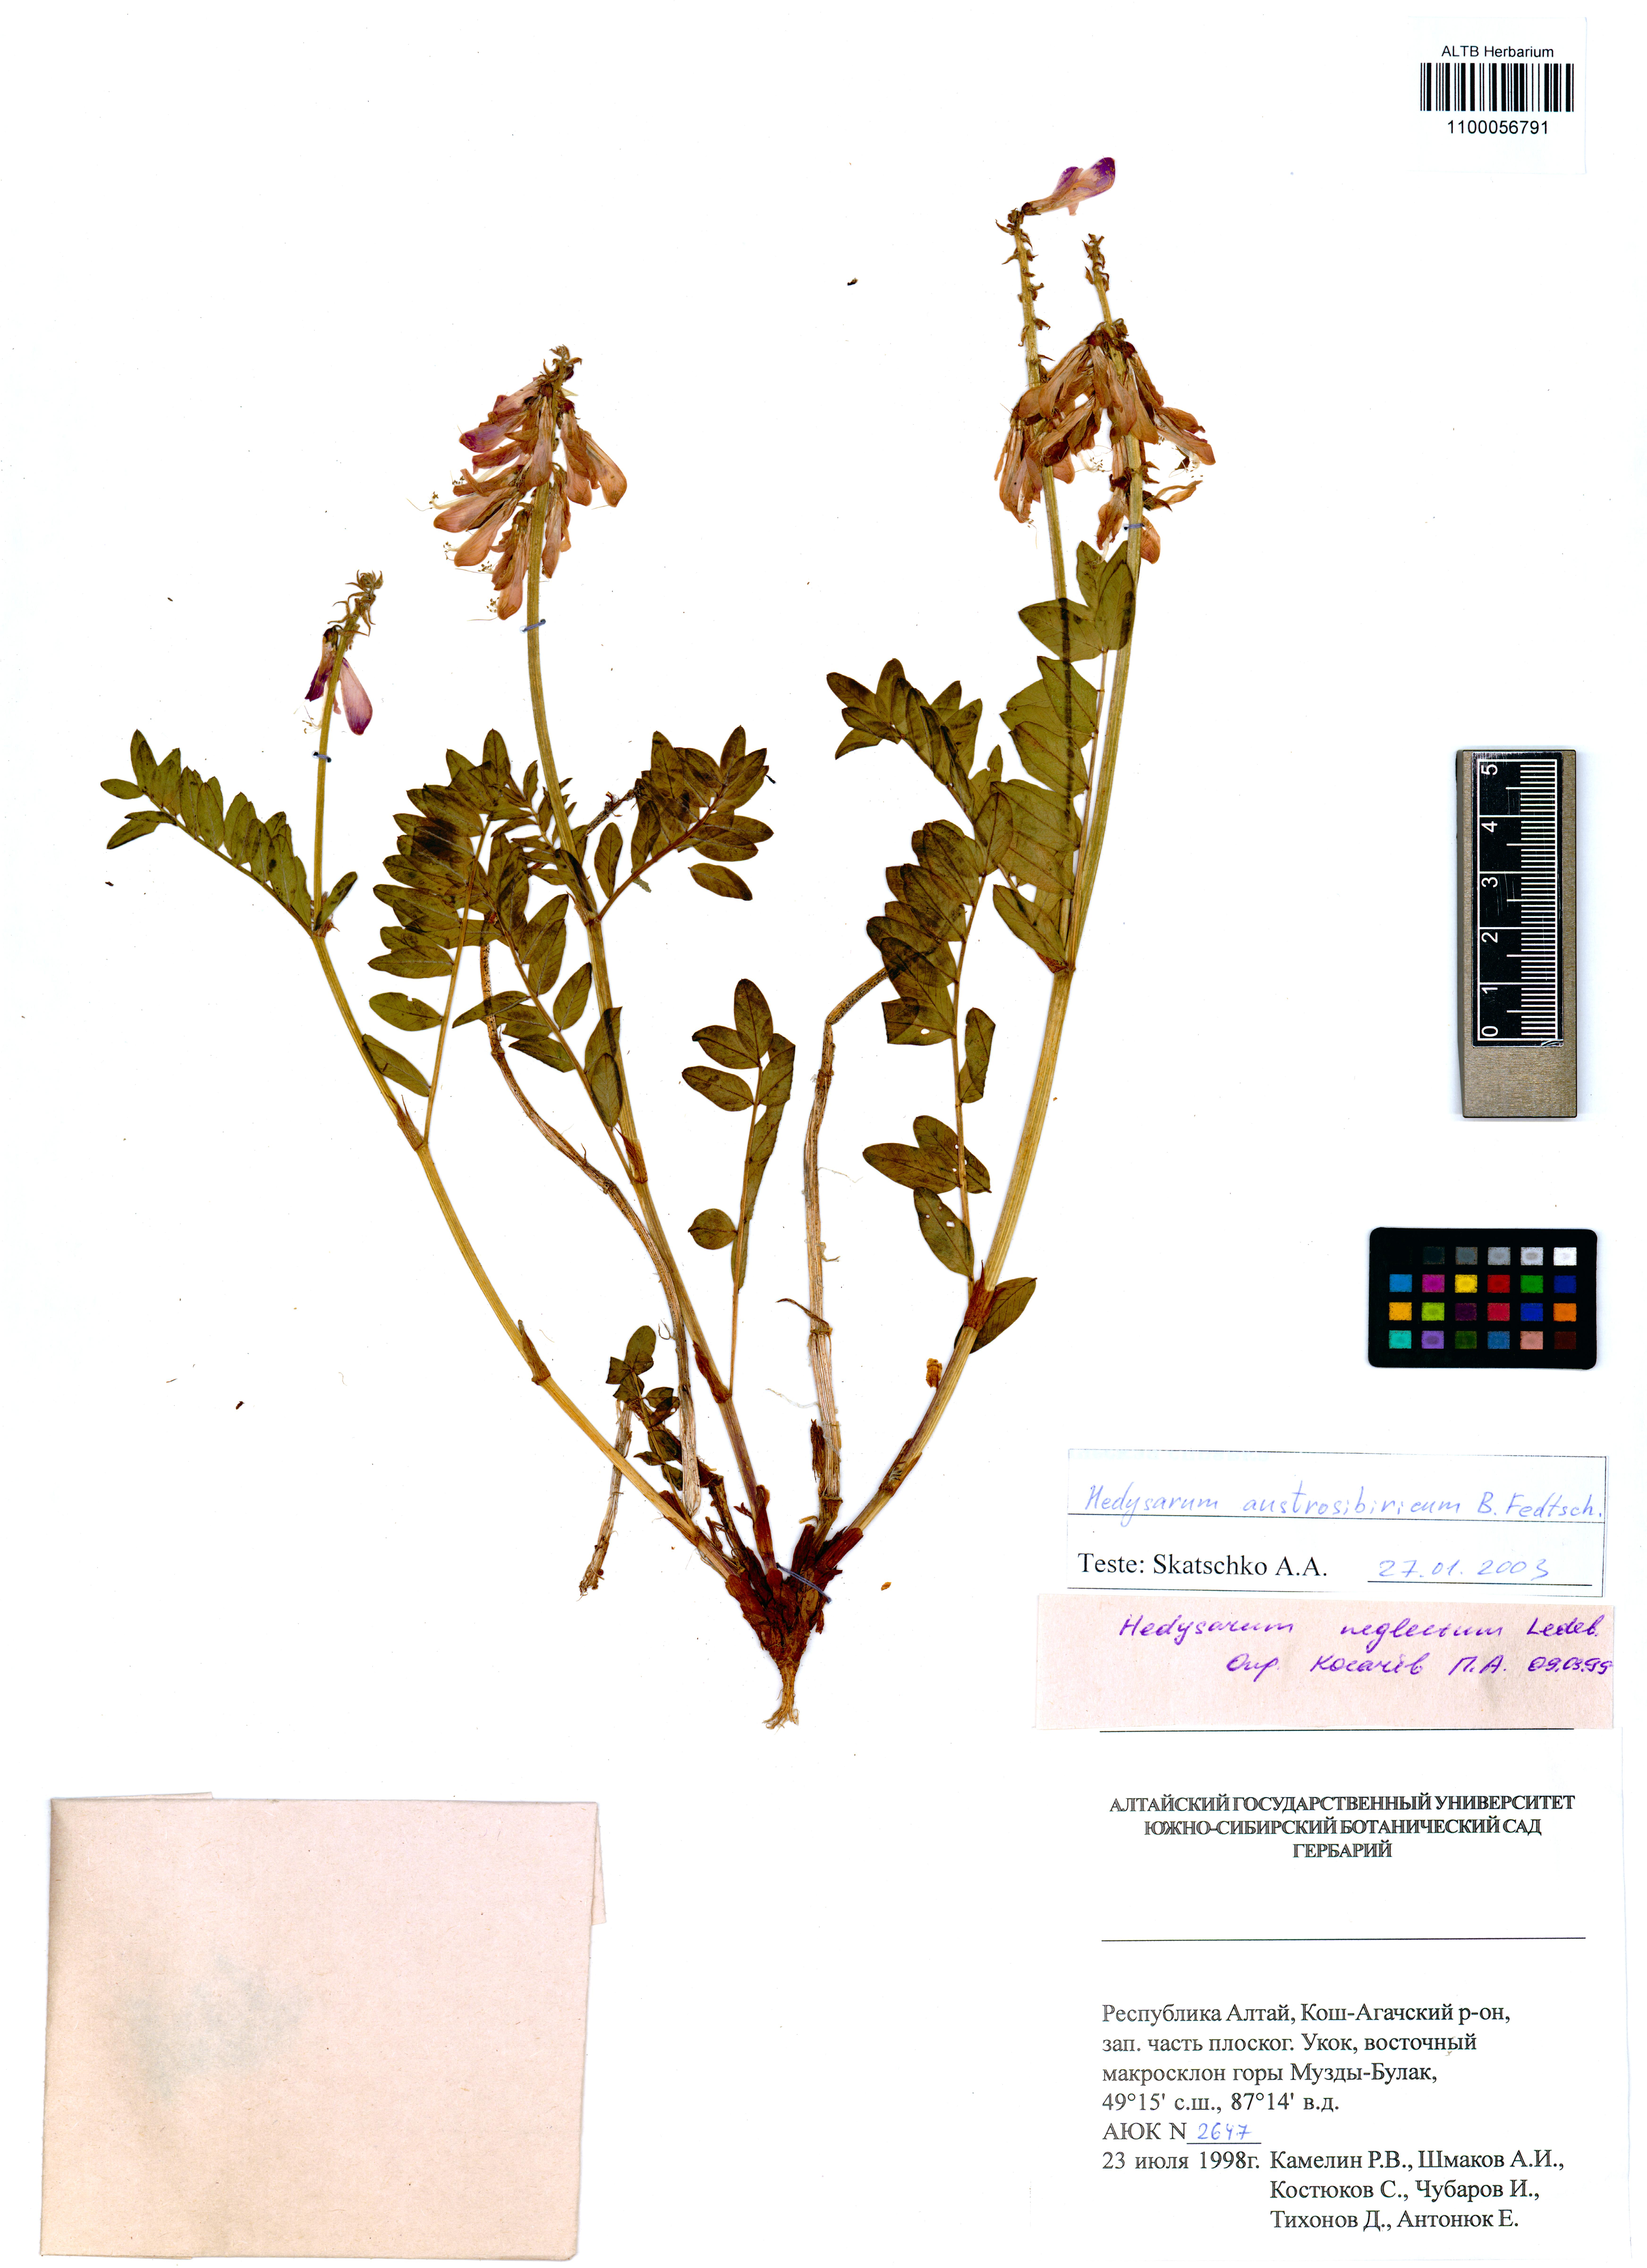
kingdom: Plantae
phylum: Tracheophyta
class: Magnoliopsida
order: Fabales
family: Fabaceae
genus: Hedysarum
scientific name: Hedysarum neglectum
